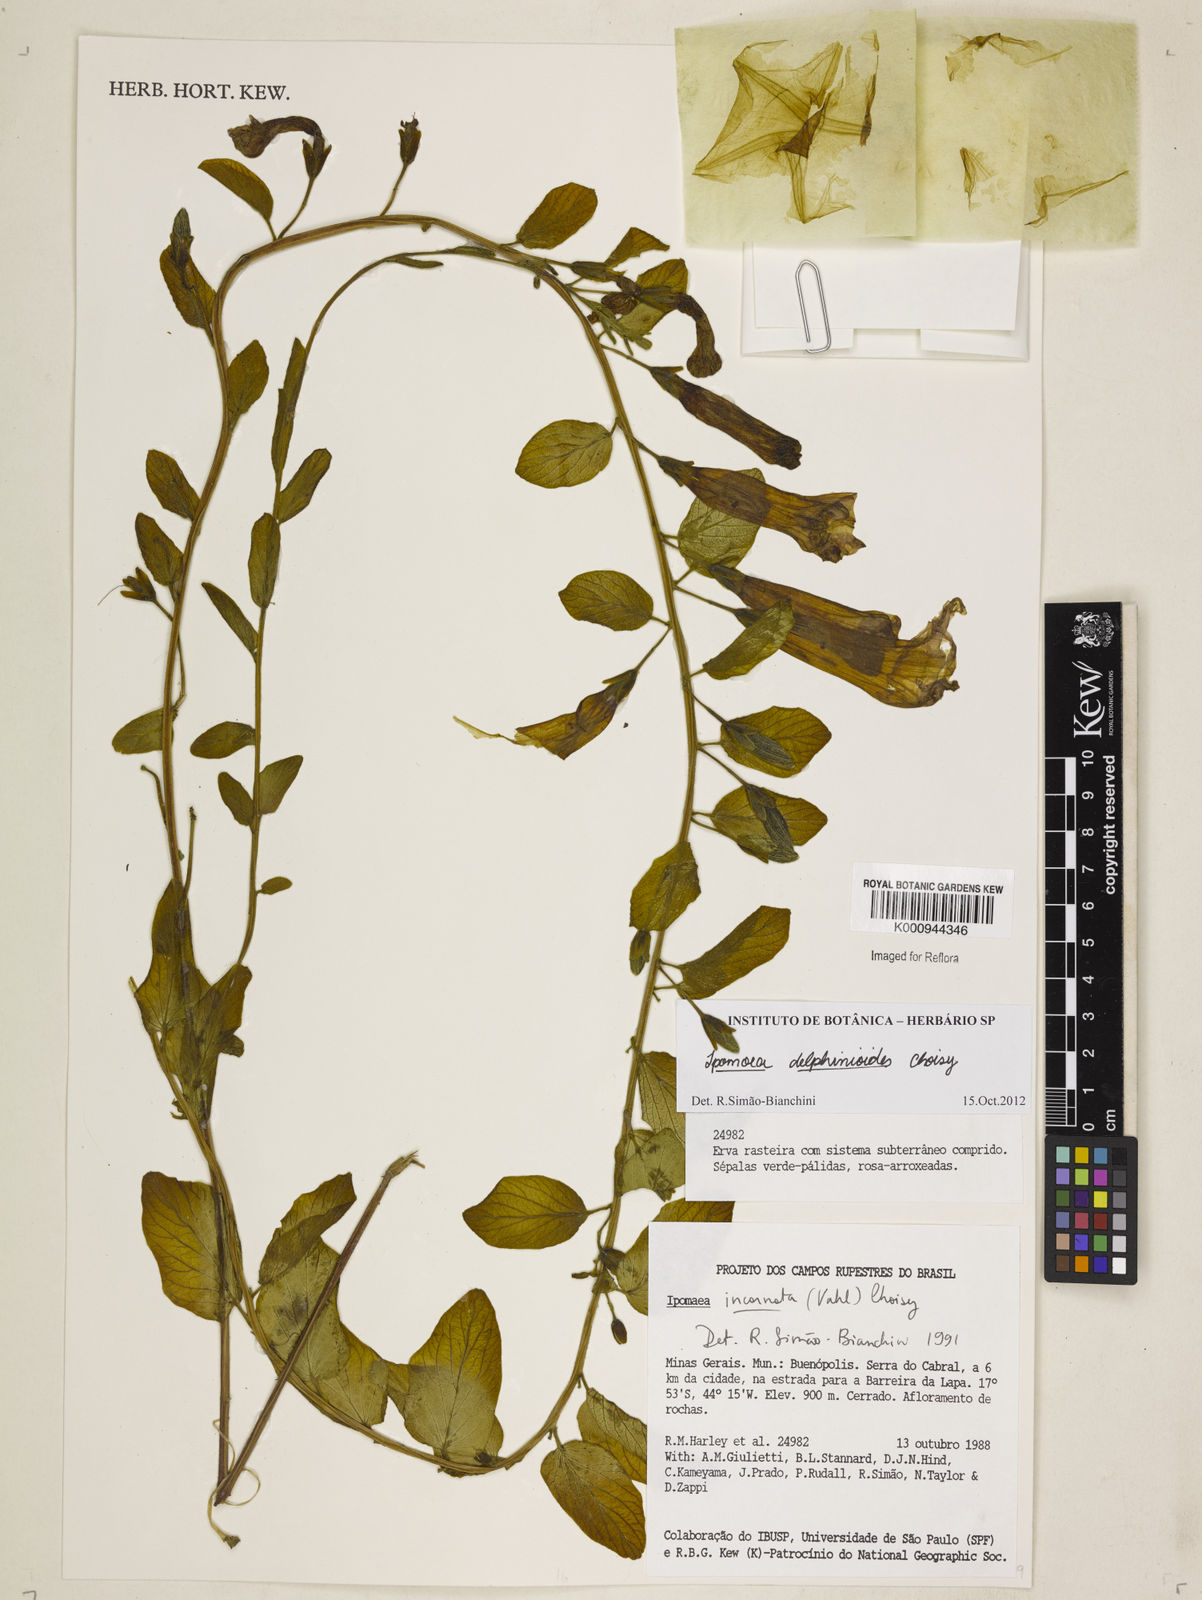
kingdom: Plantae
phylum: Tracheophyta
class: Magnoliopsida
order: Solanales
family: Convolvulaceae
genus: Ipomoea
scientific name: Ipomoea delphinioides
